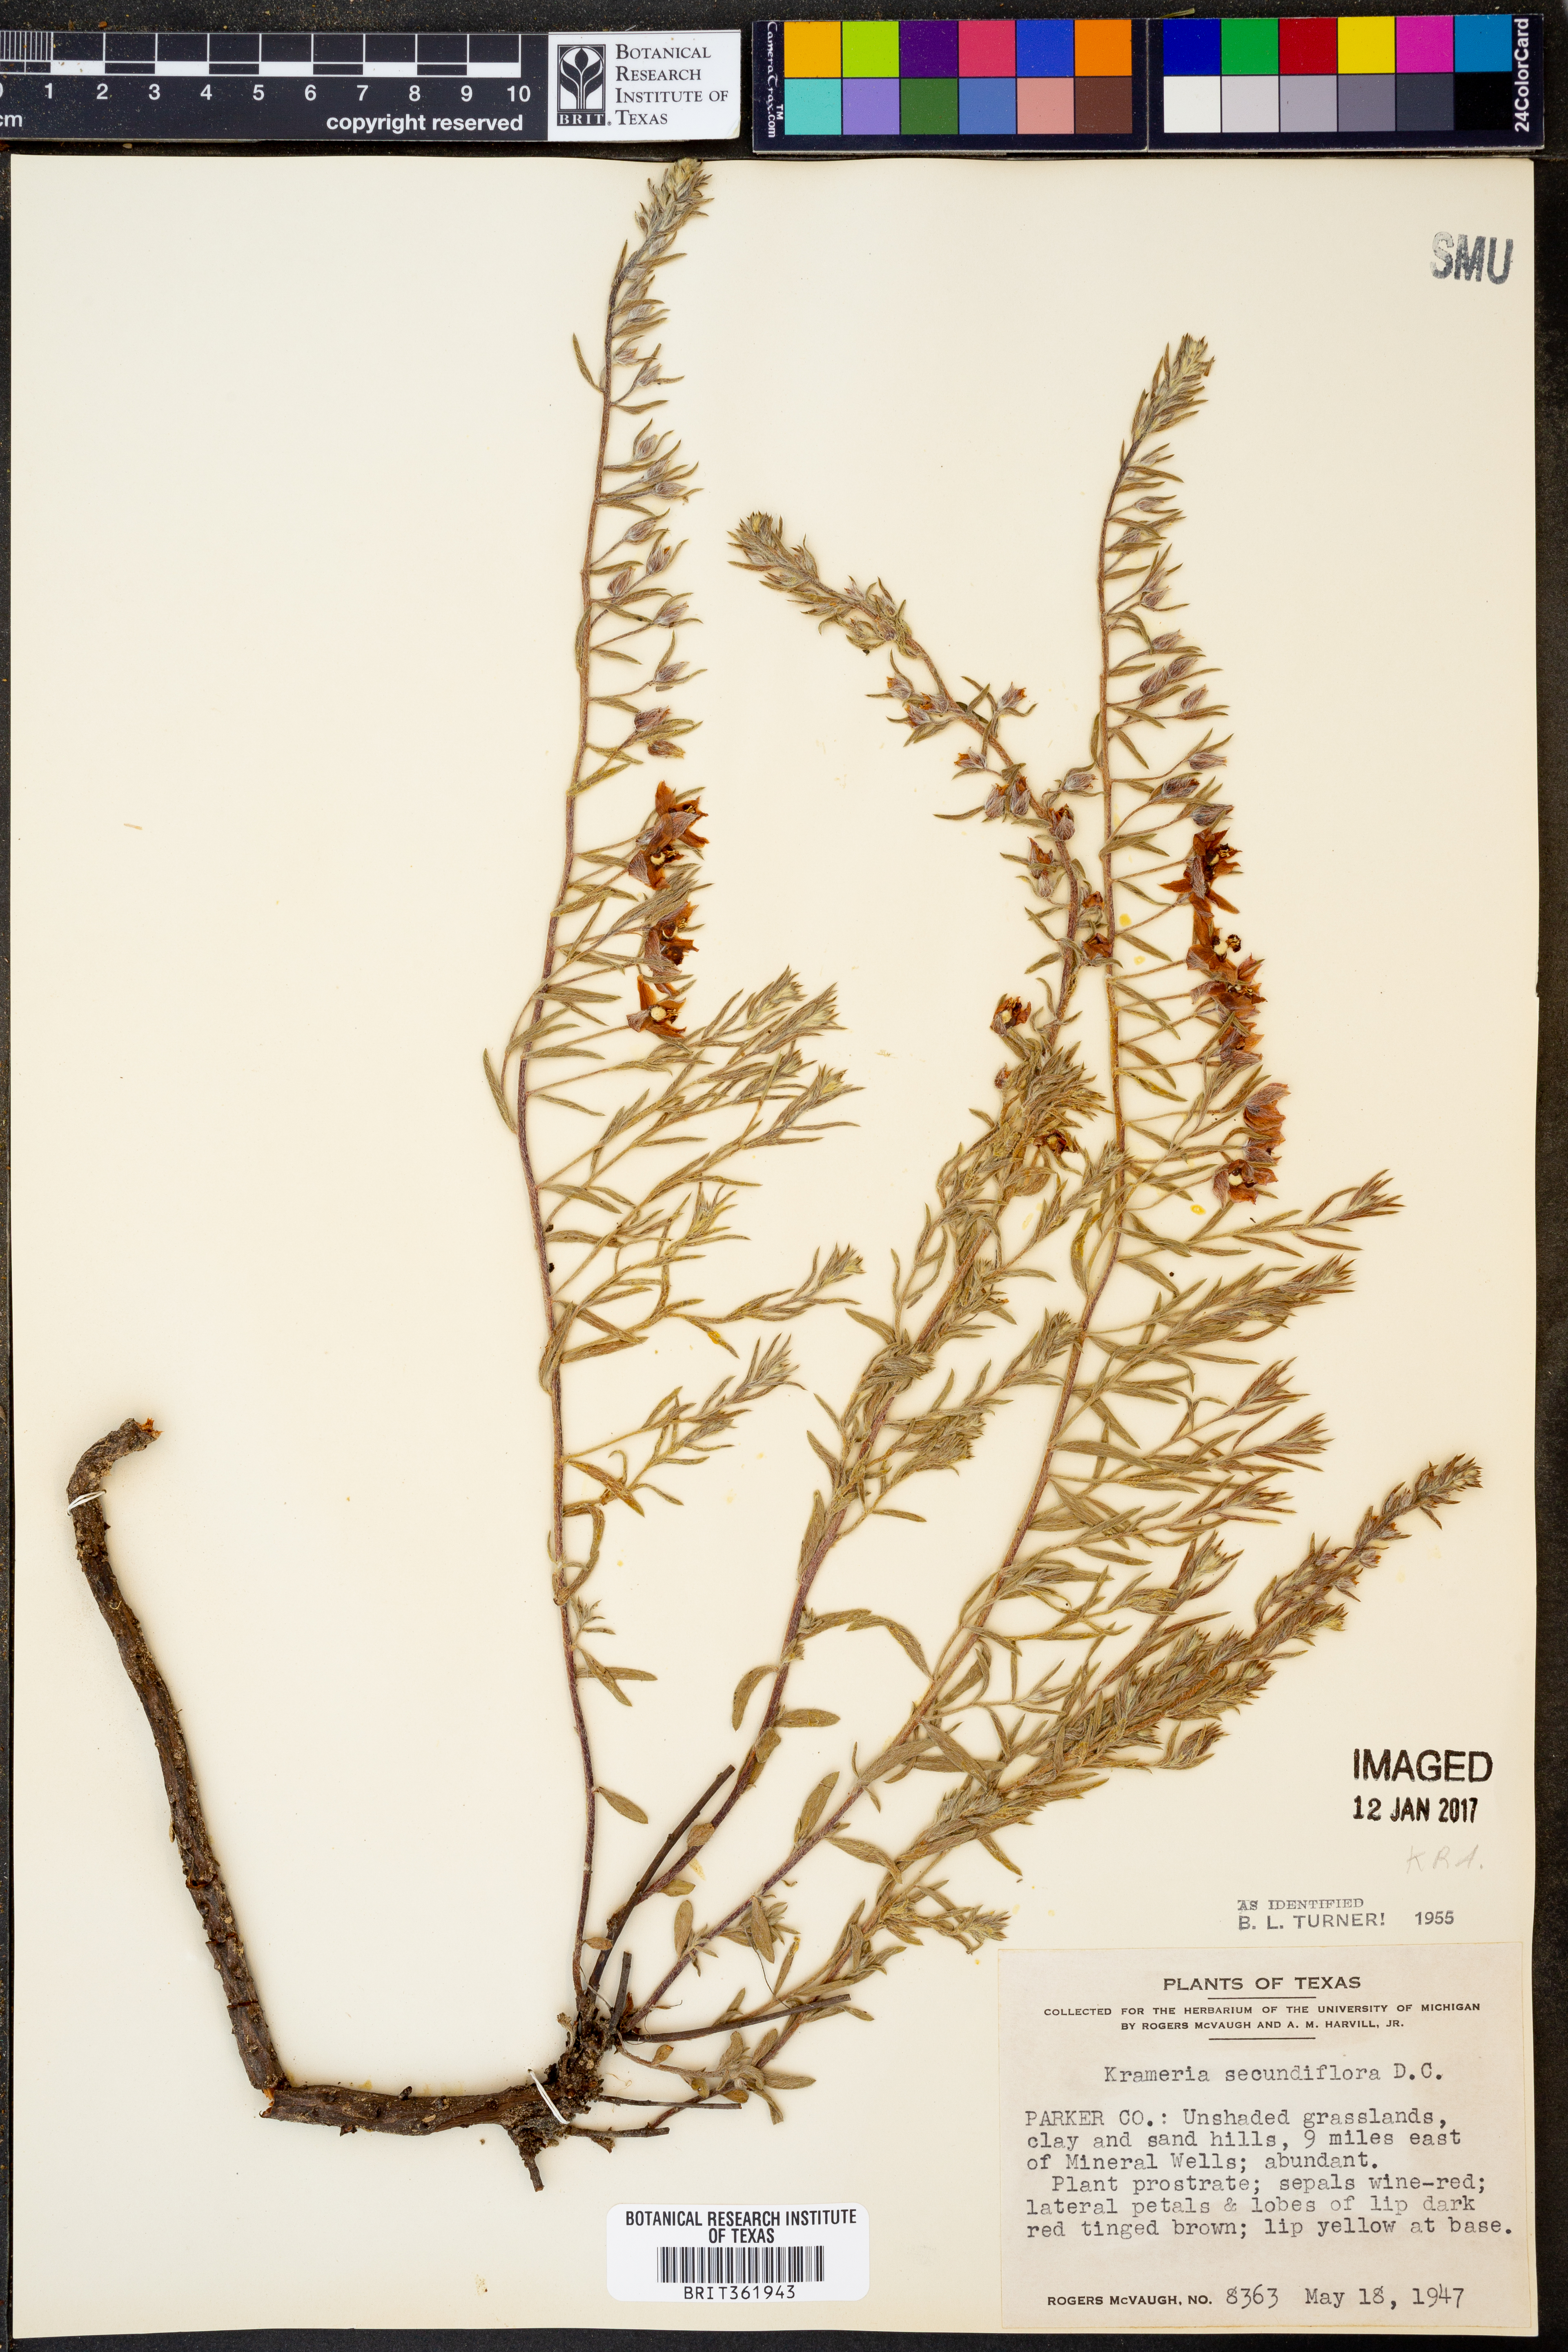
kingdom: Plantae
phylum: Tracheophyta
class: Magnoliopsida
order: Zygophyllales
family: Krameriaceae
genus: Krameria
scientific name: Krameria secundiflora
